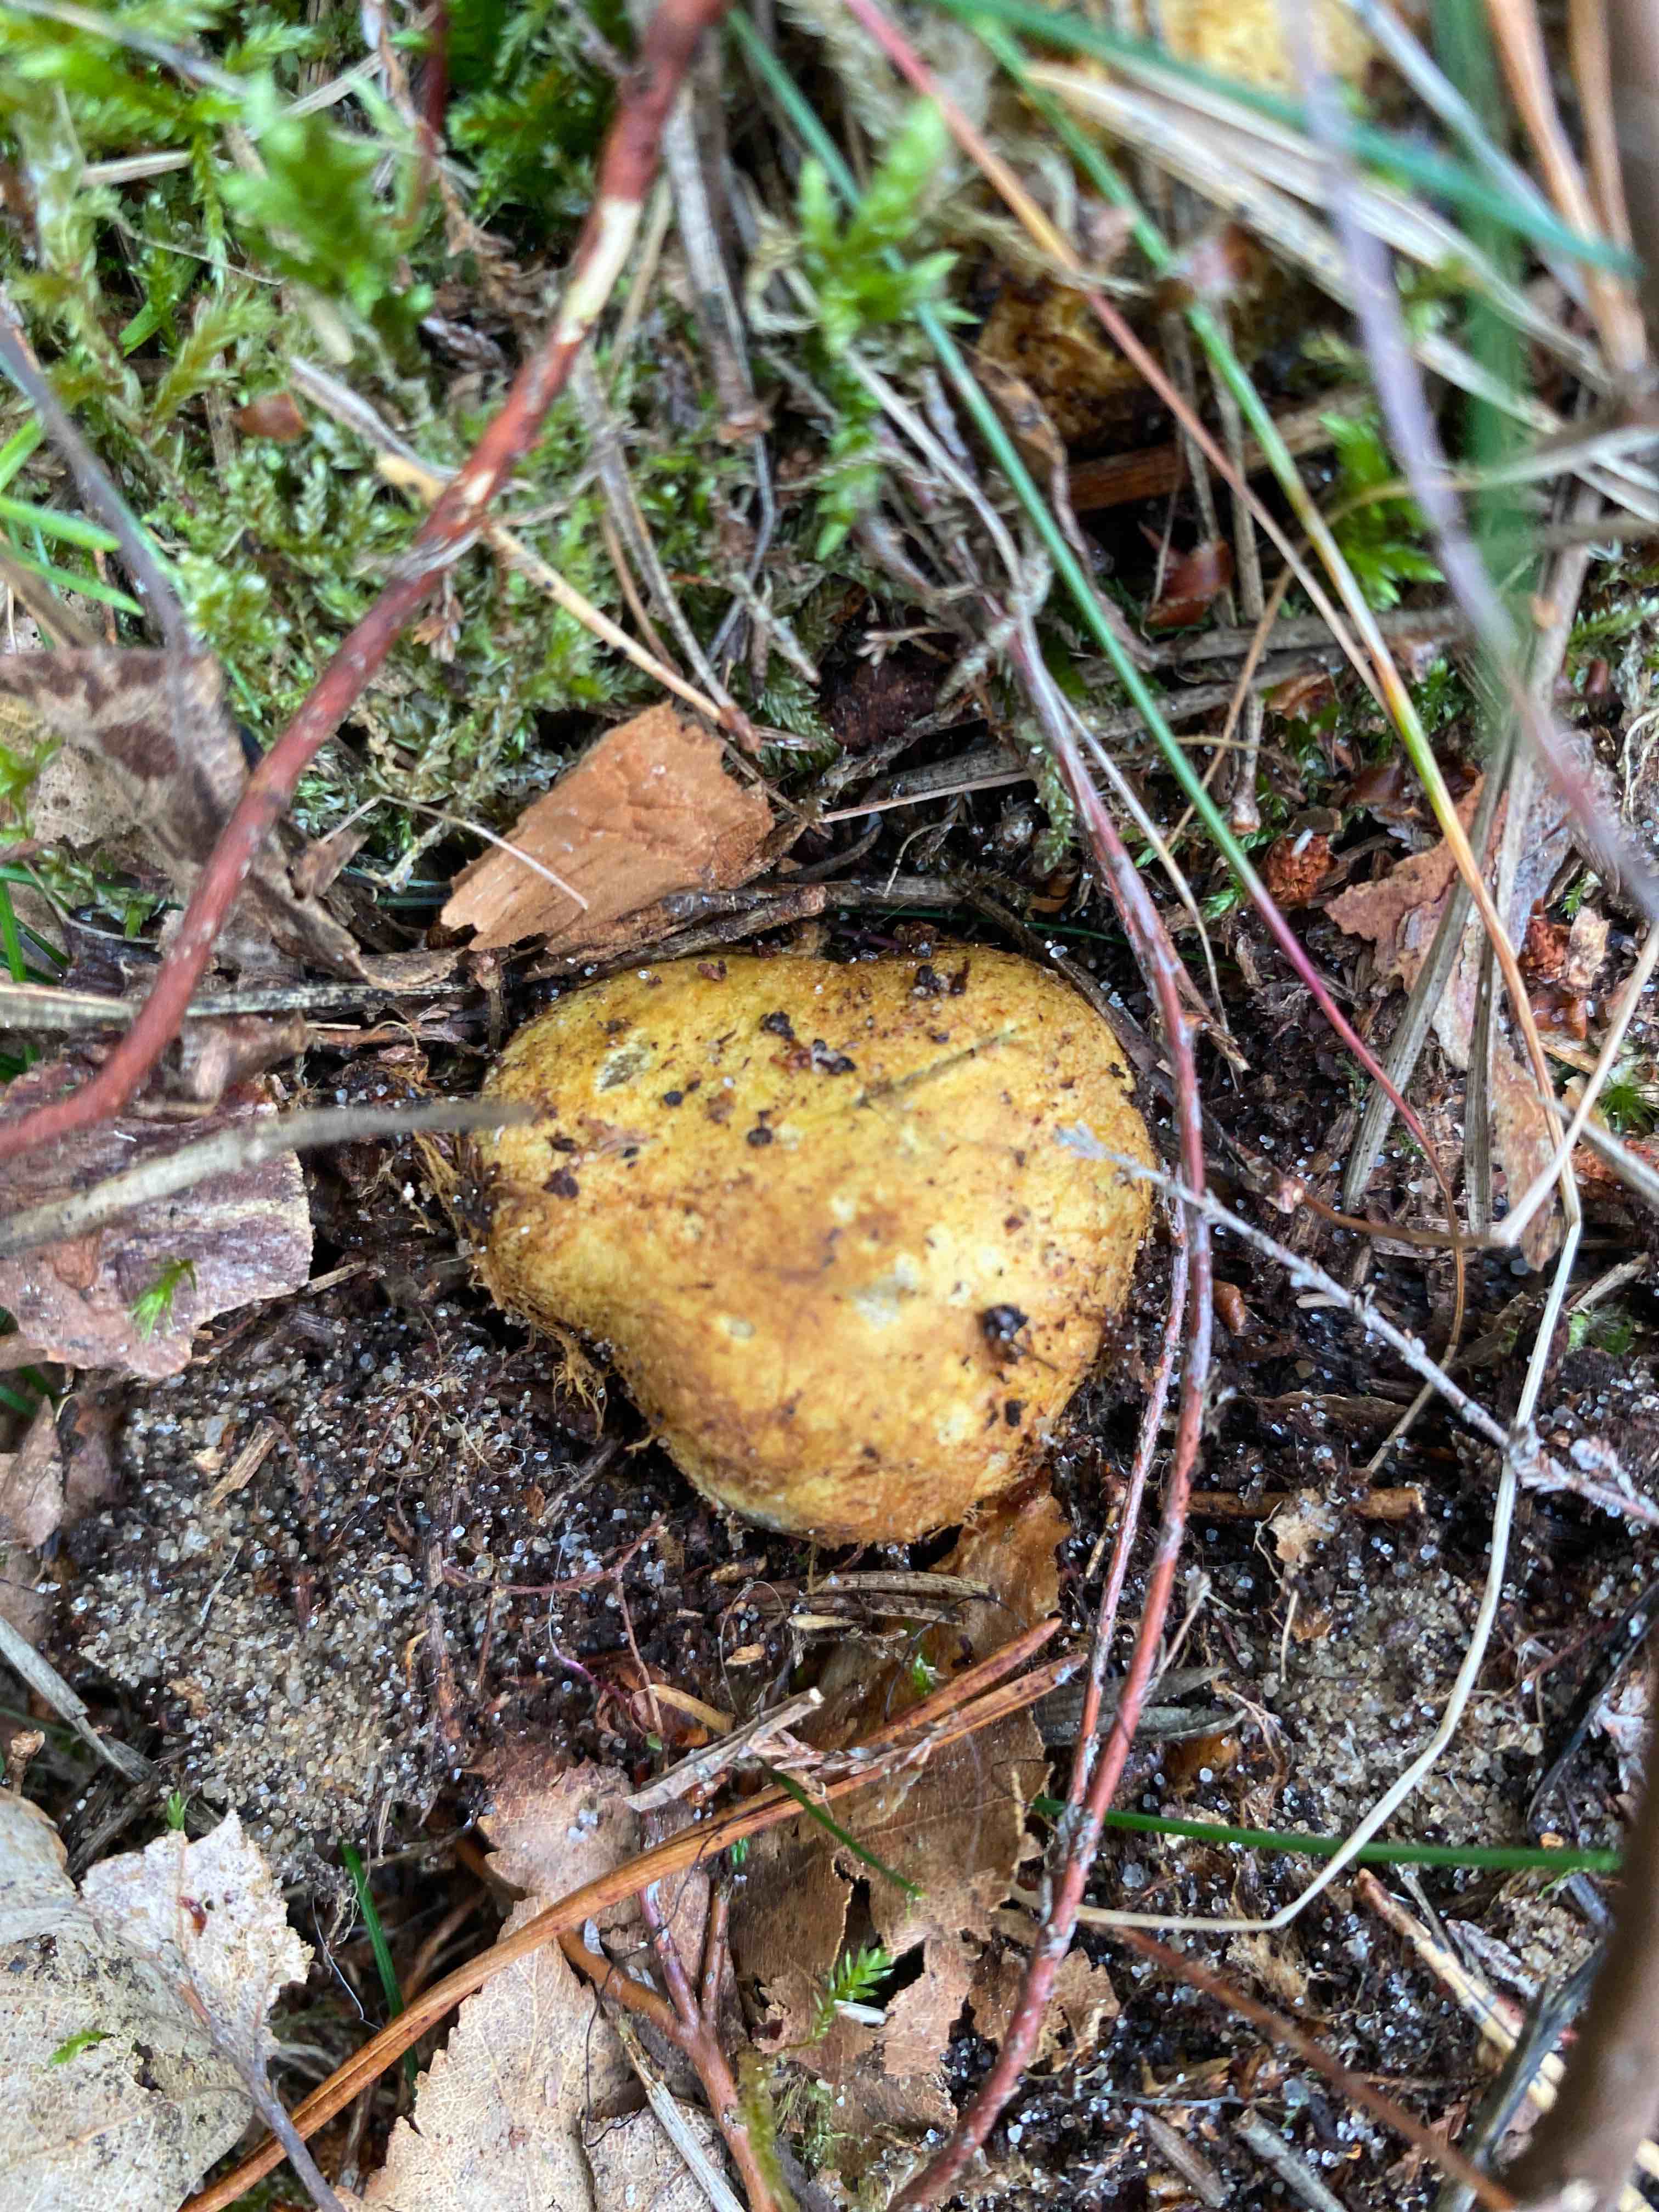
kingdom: Fungi
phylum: Basidiomycota
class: Agaricomycetes
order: Boletales
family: Rhizopogonaceae
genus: Rhizopogon
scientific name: Rhizopogon obtextus
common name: gul skægtrøffel
